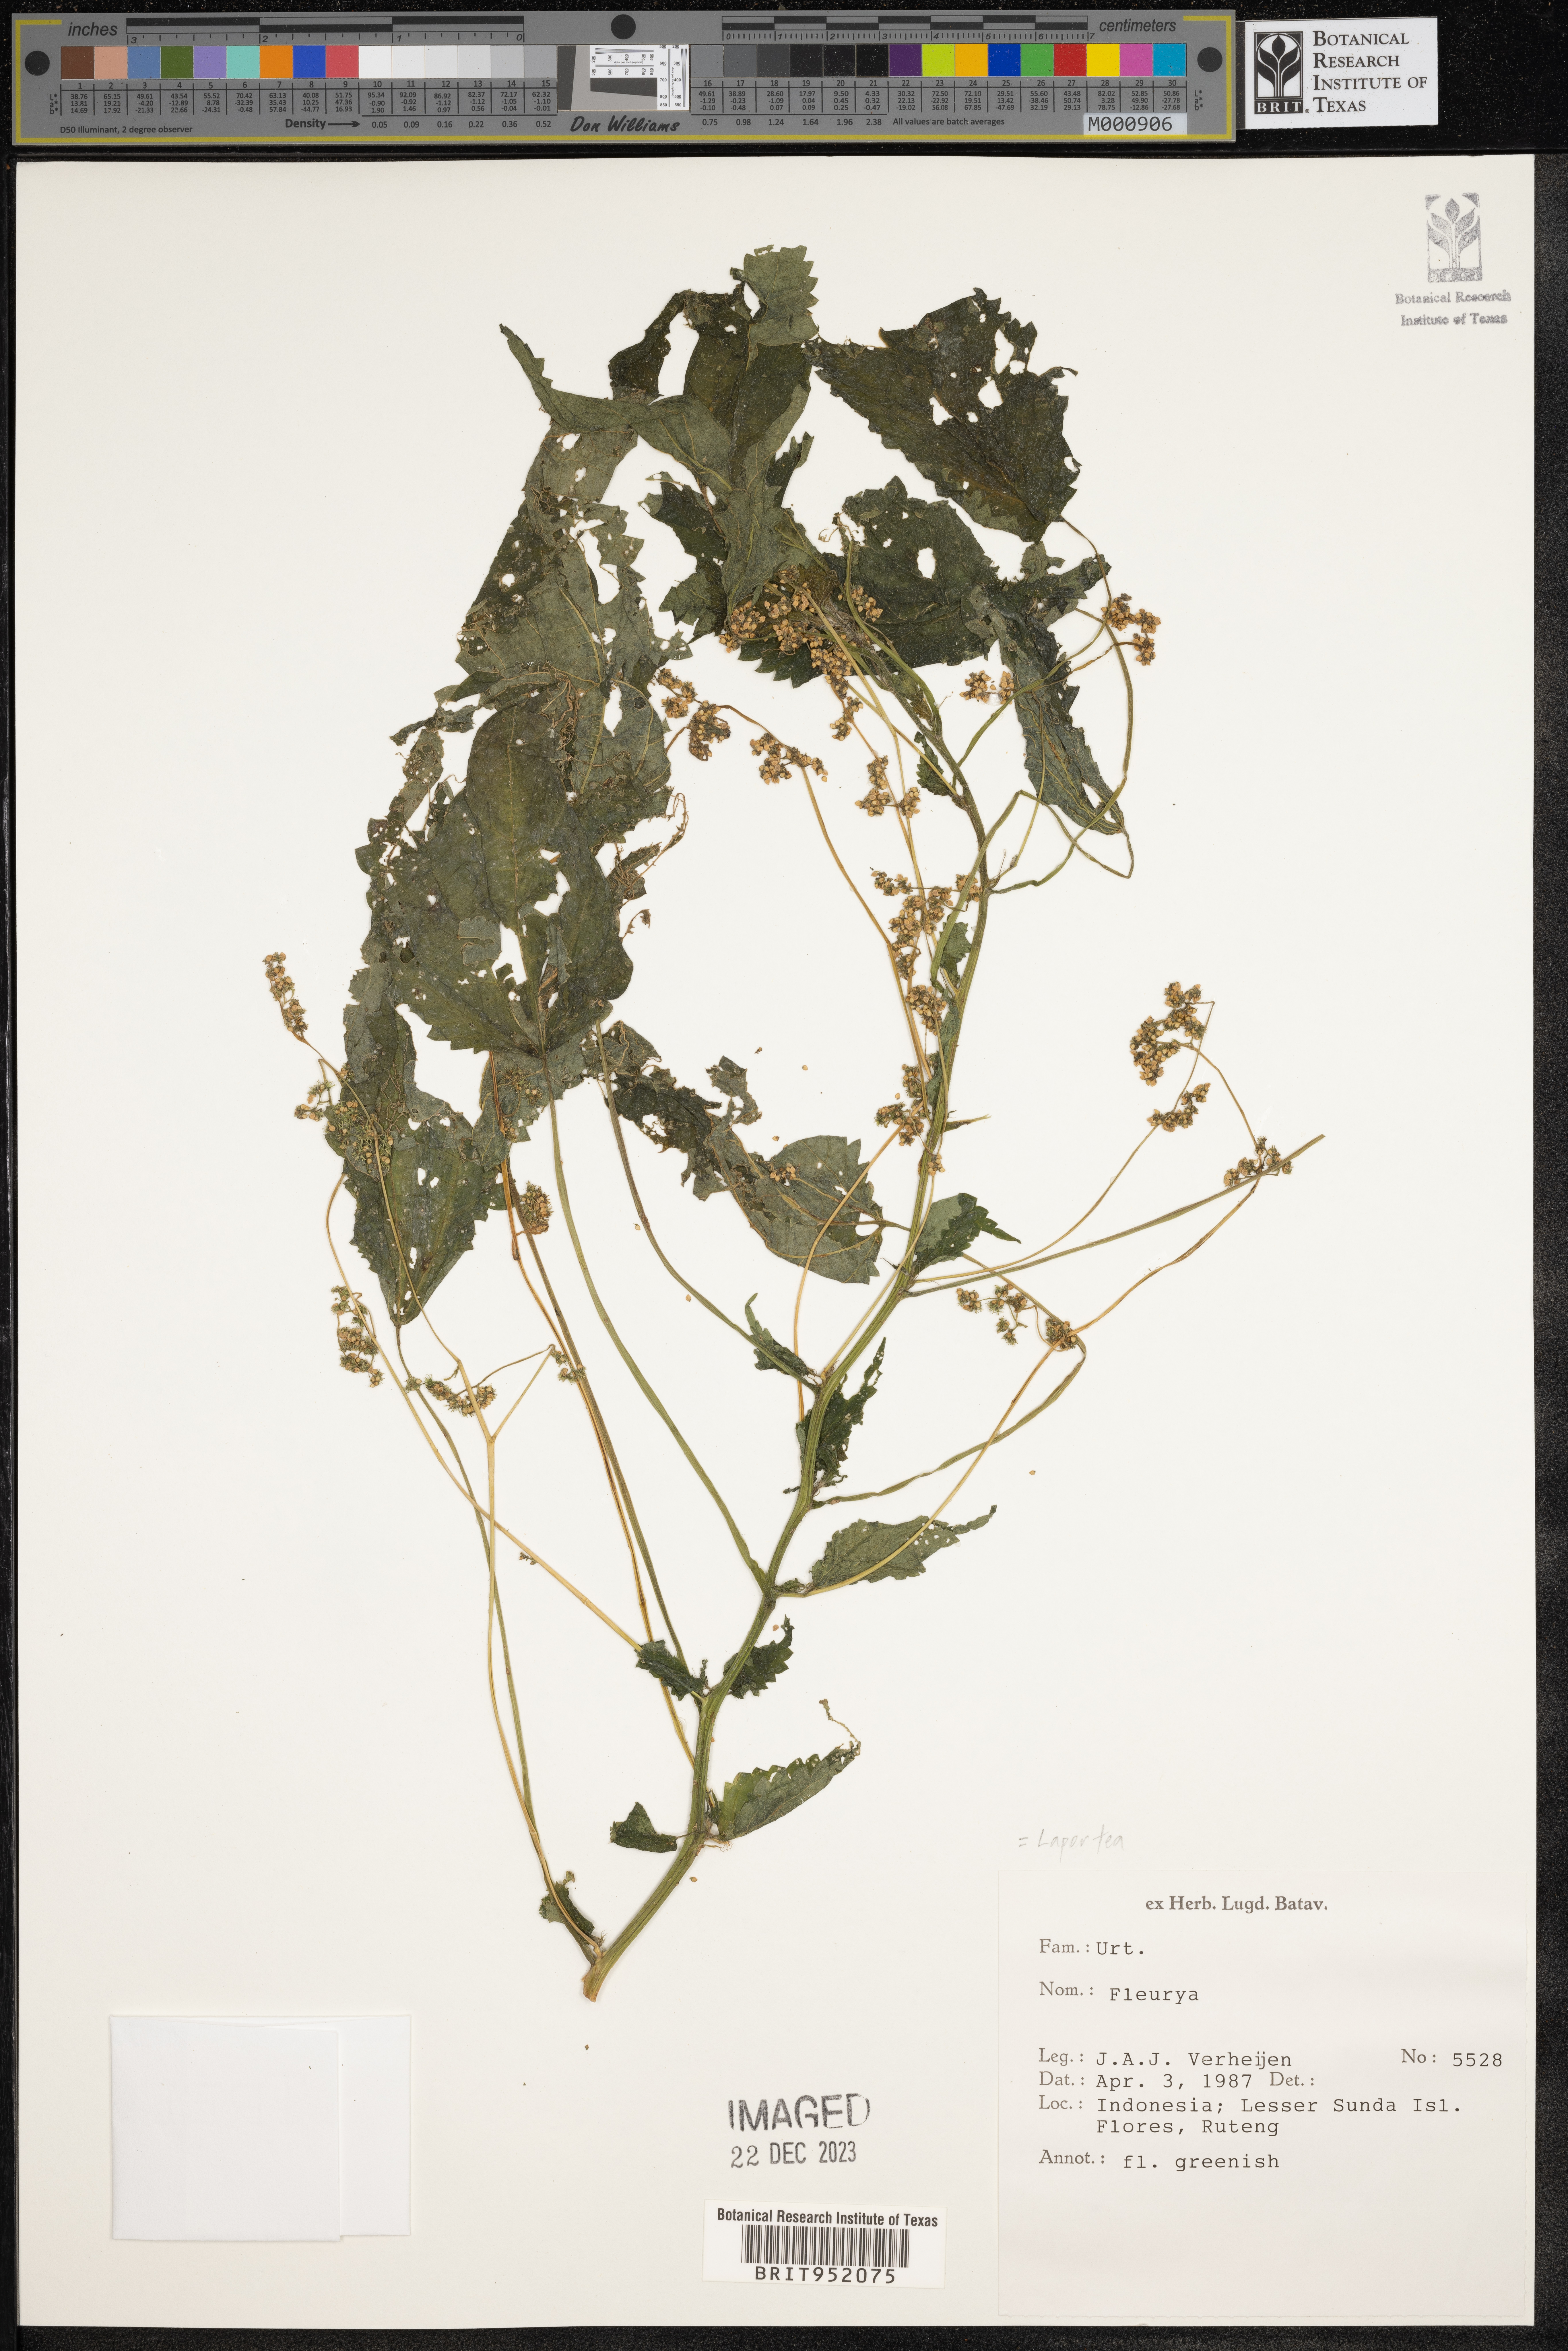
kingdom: Plantae
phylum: Tracheophyta
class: Magnoliopsida
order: Rosales
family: Urticaceae
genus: Laportea
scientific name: Laportea
